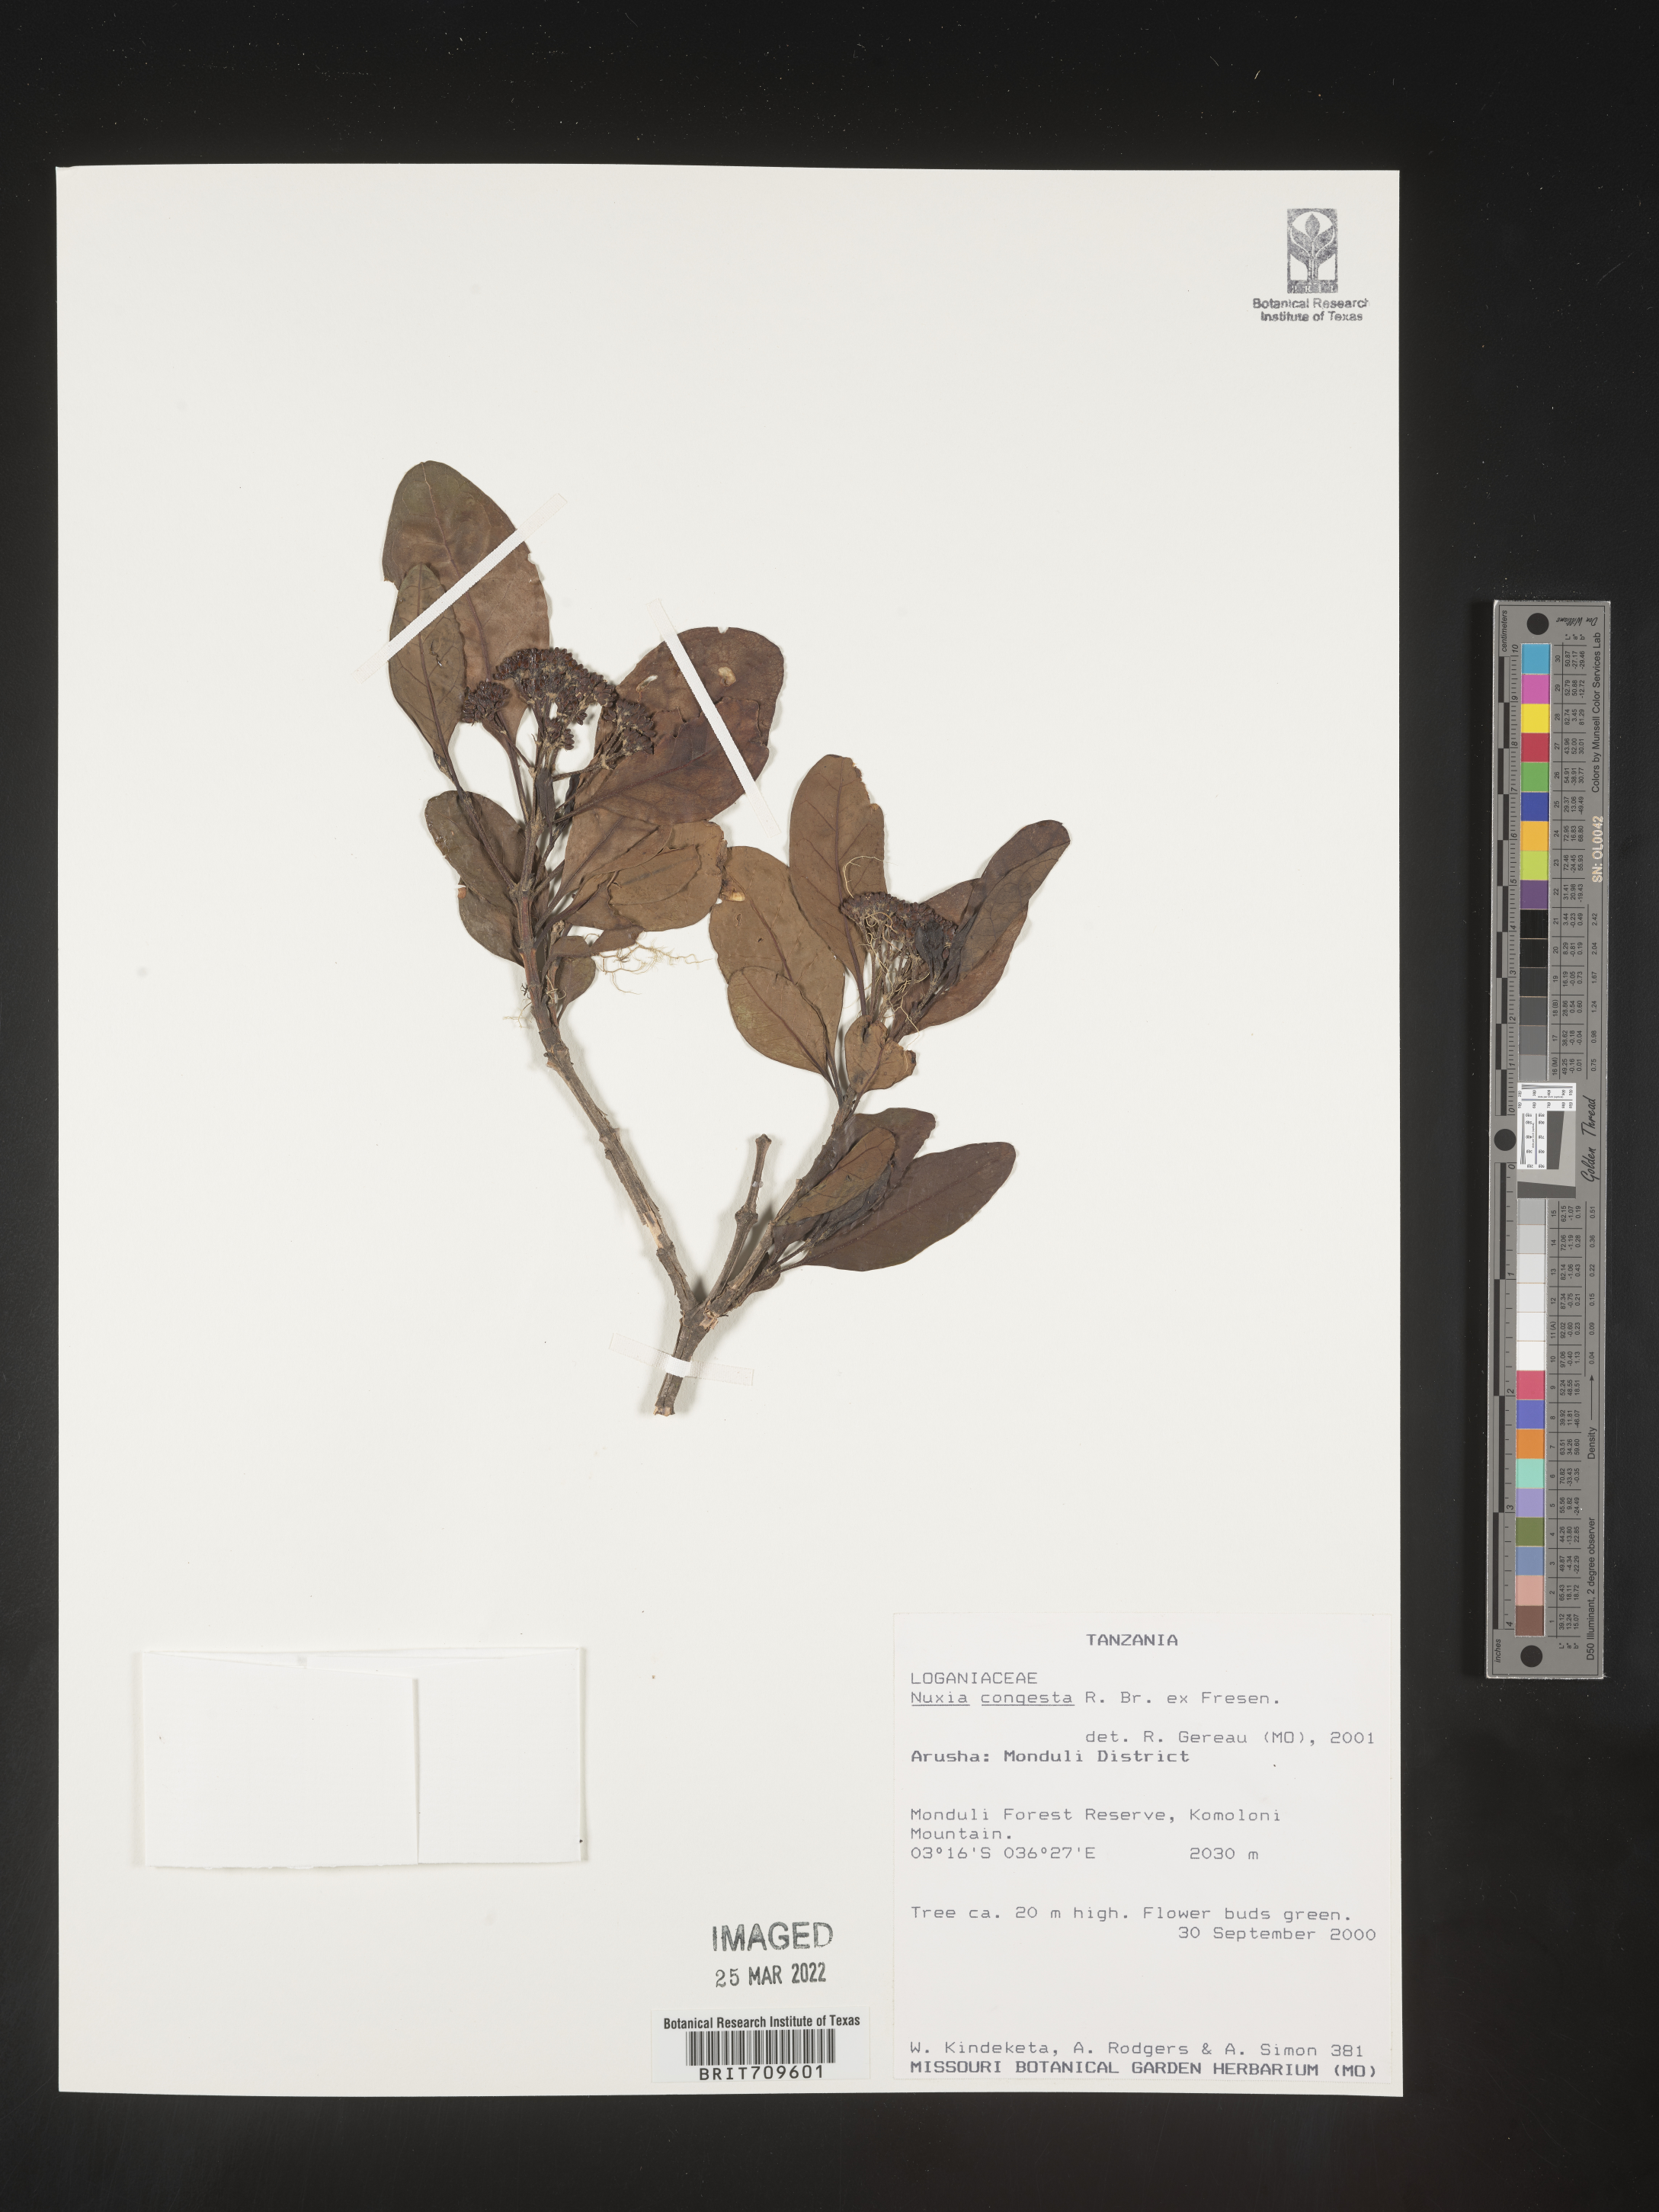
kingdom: Plantae
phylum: Tracheophyta
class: Magnoliopsida
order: Lamiales
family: Stilbaceae
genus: Nuxia
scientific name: Nuxia
